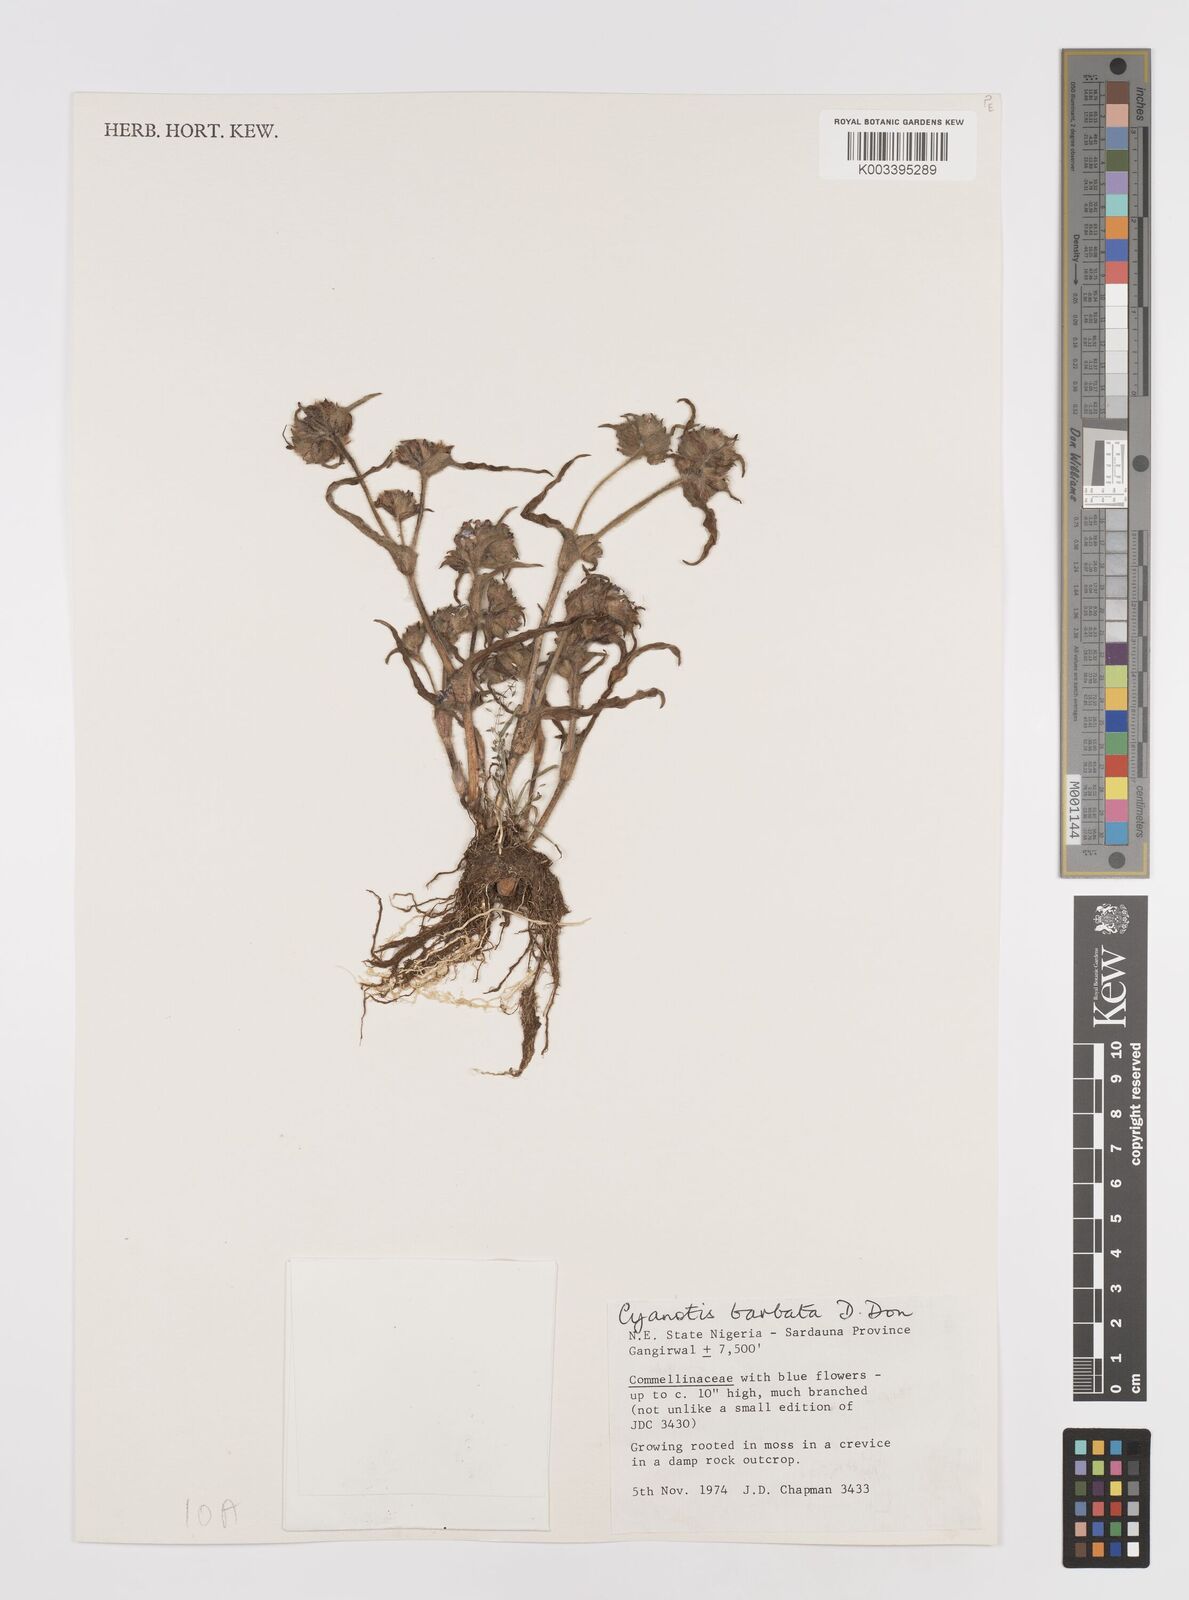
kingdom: Plantae
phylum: Tracheophyta
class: Liliopsida
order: Commelinales
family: Commelinaceae
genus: Cyanotis
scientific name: Cyanotis vaga
